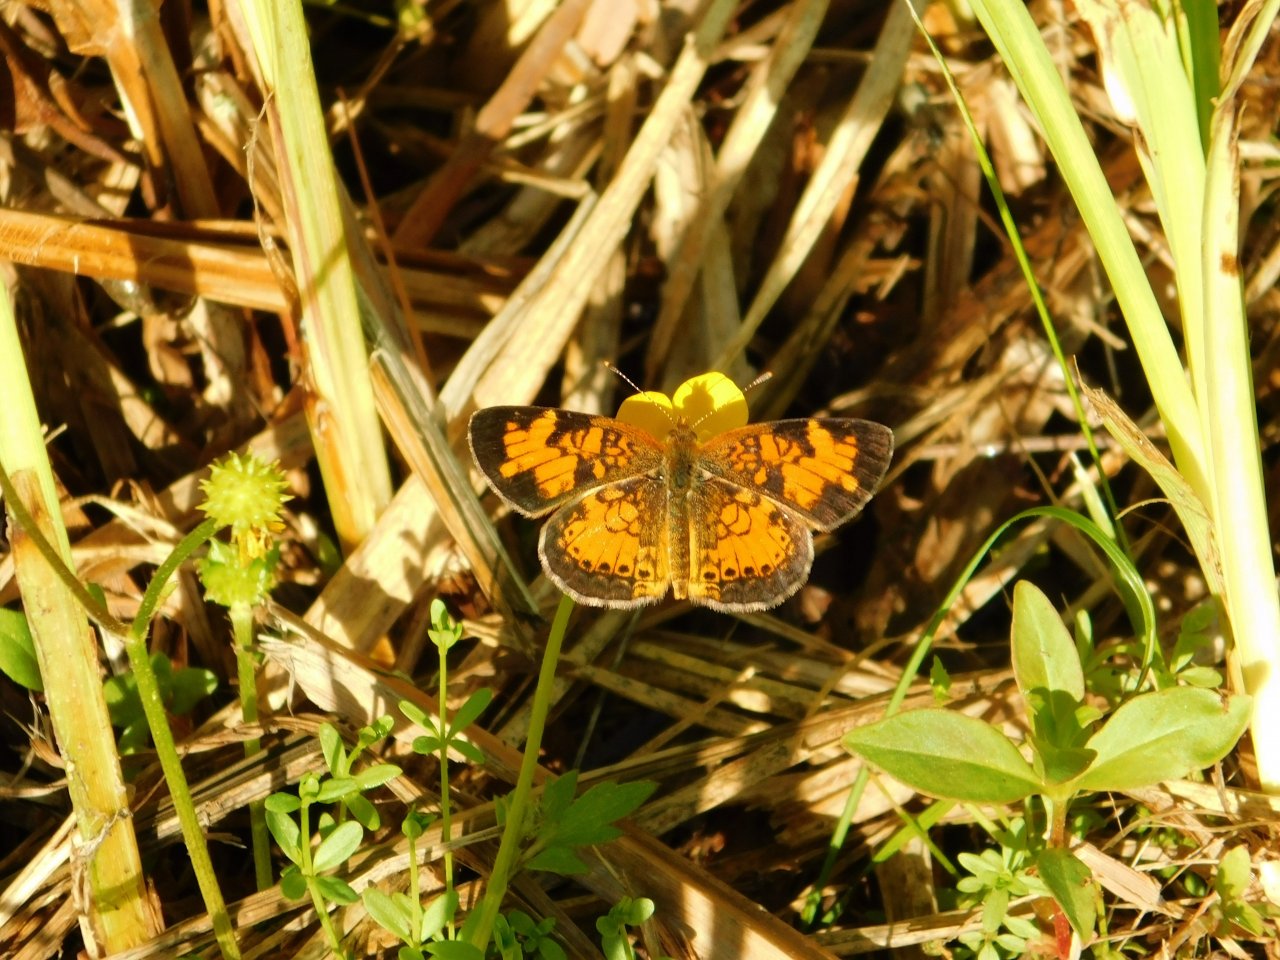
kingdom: Animalia
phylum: Arthropoda
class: Insecta
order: Lepidoptera
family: Nymphalidae
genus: Phyciodes
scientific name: Phyciodes tharos
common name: Northern Crescent
